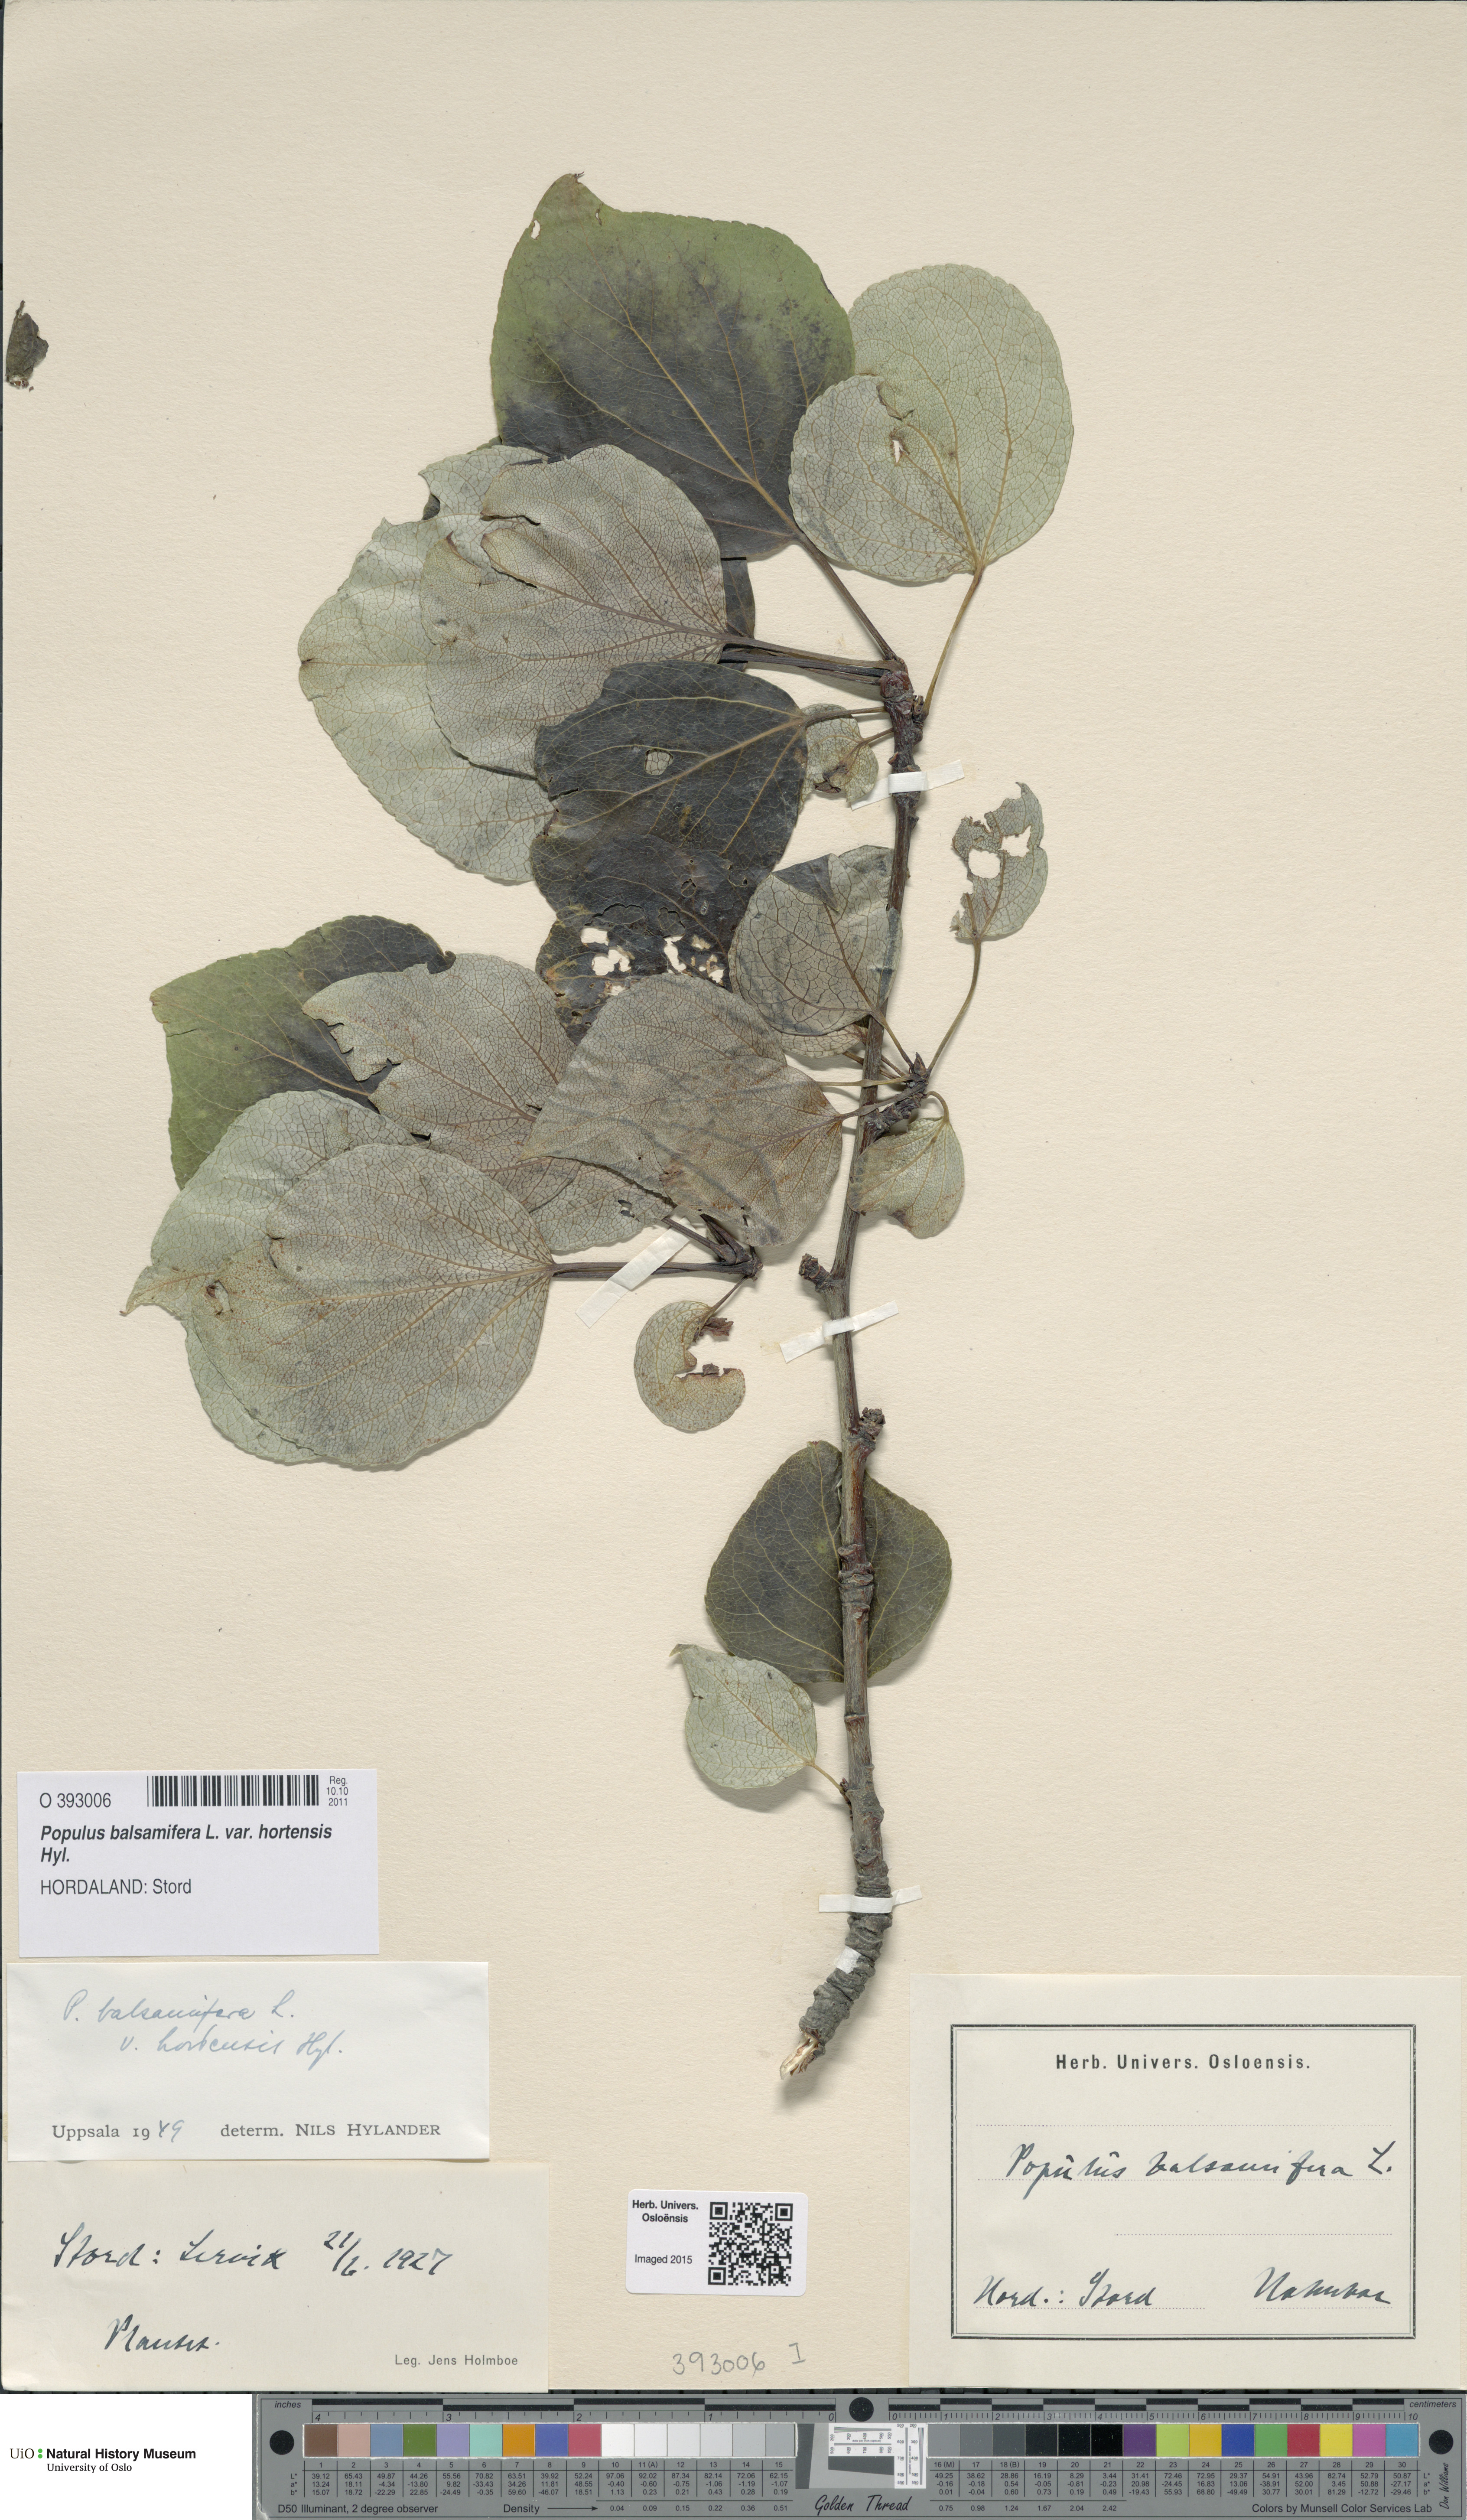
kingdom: Plantae
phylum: Tracheophyta
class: Magnoliopsida
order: Malpighiales
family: Salicaceae
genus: Populus
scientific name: Populus balsamifera
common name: Balsam poplar
